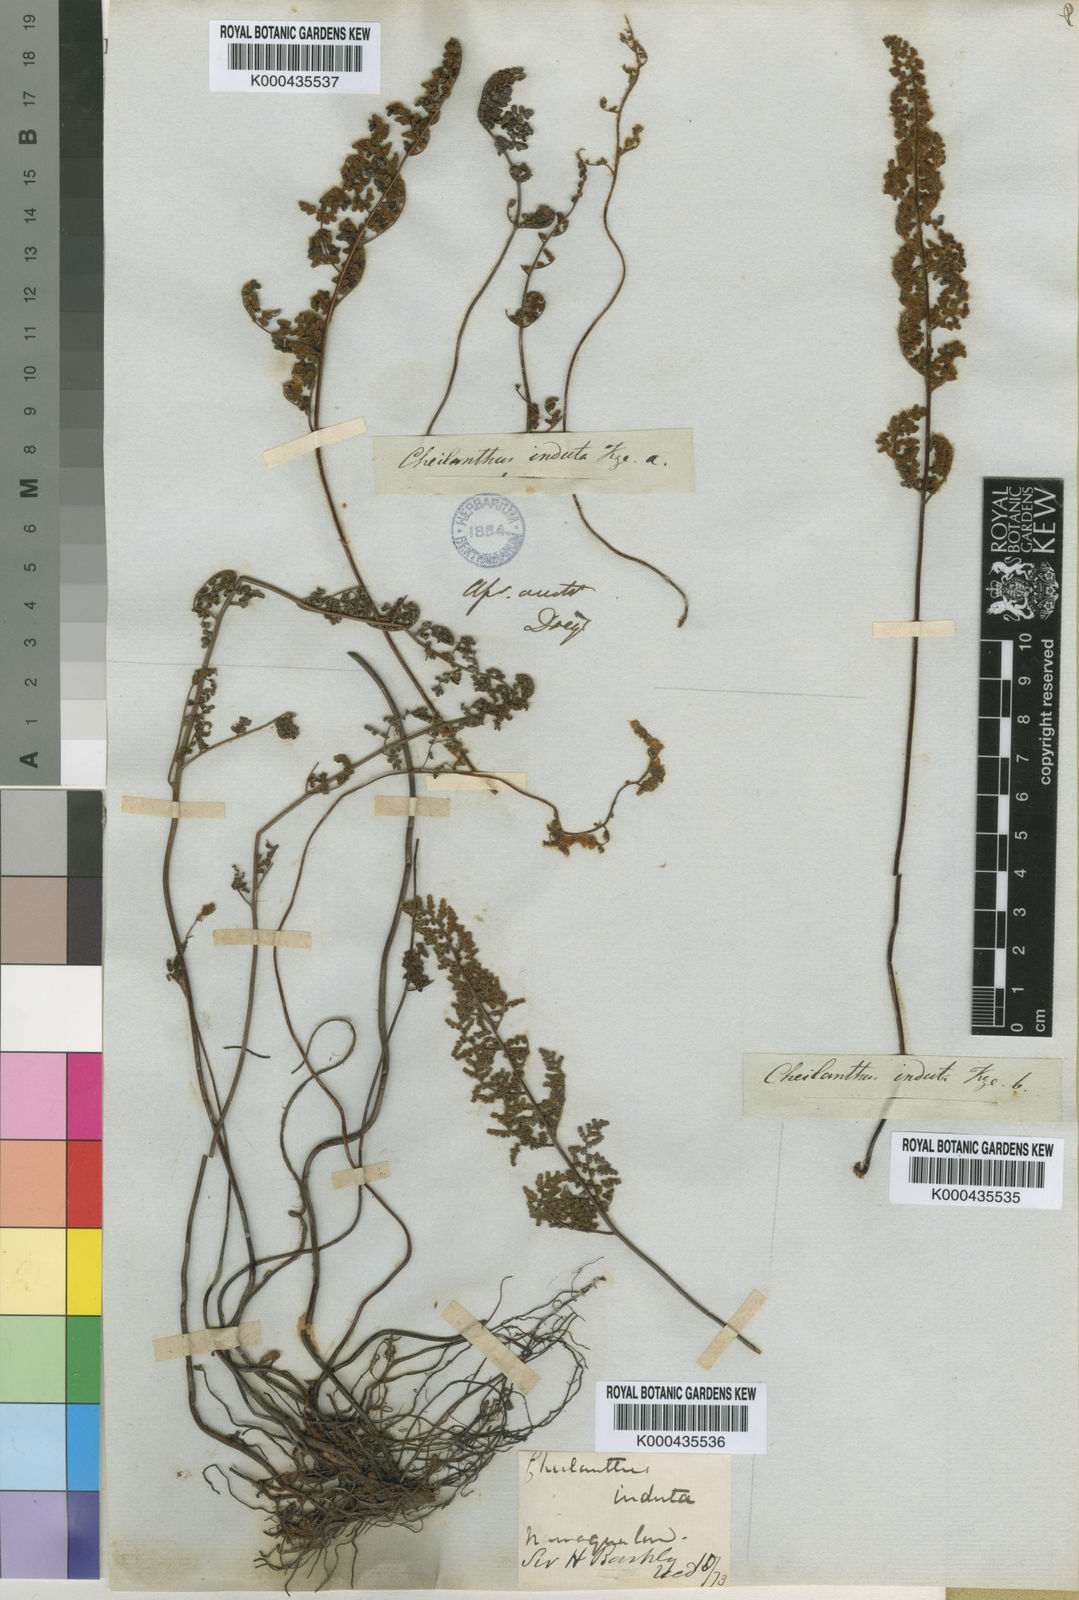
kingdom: Plantae
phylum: Tracheophyta
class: Polypodiopsida
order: Polypodiales
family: Pteridaceae
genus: Cheilanthes
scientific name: Cheilanthes induta
